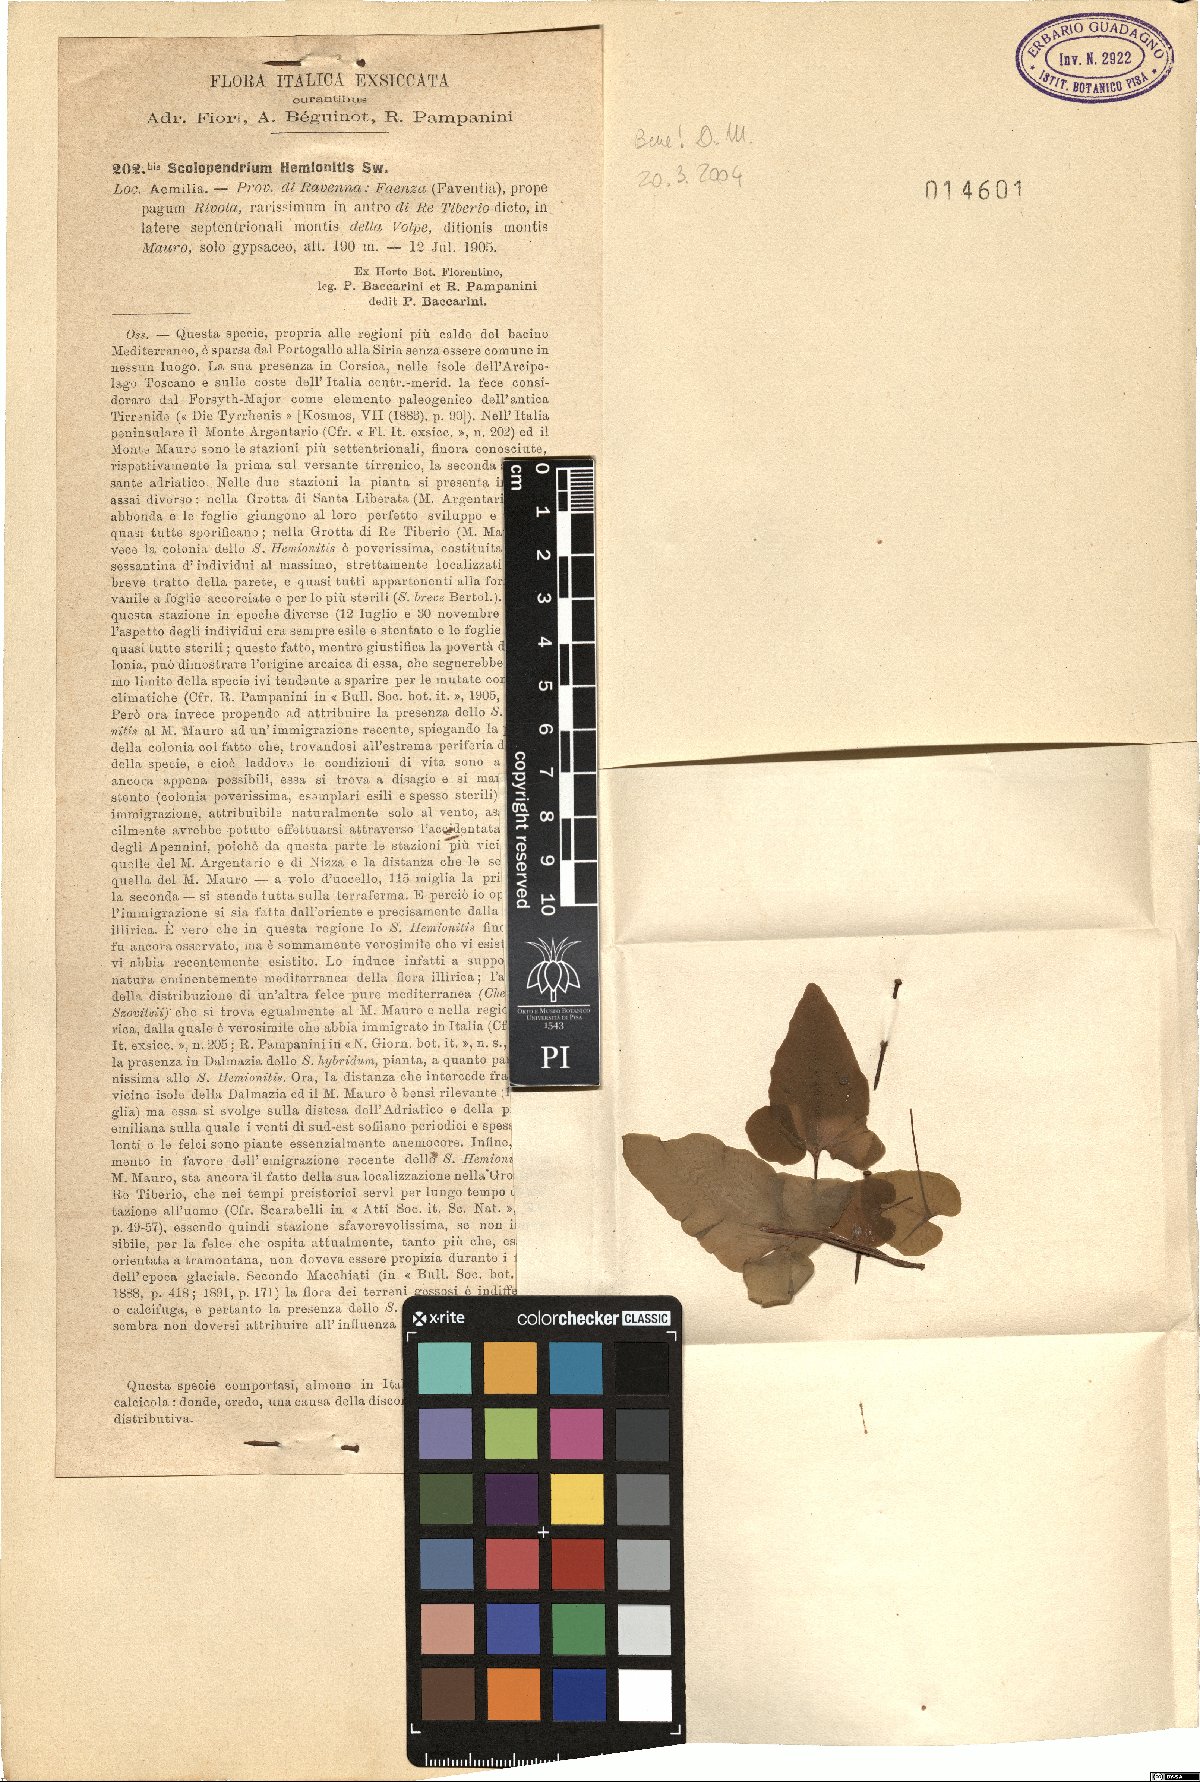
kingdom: Plantae
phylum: Tracheophyta
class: Polypodiopsida
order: Polypodiales
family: Aspleniaceae
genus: Asplenium
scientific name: Asplenium sagittatum
